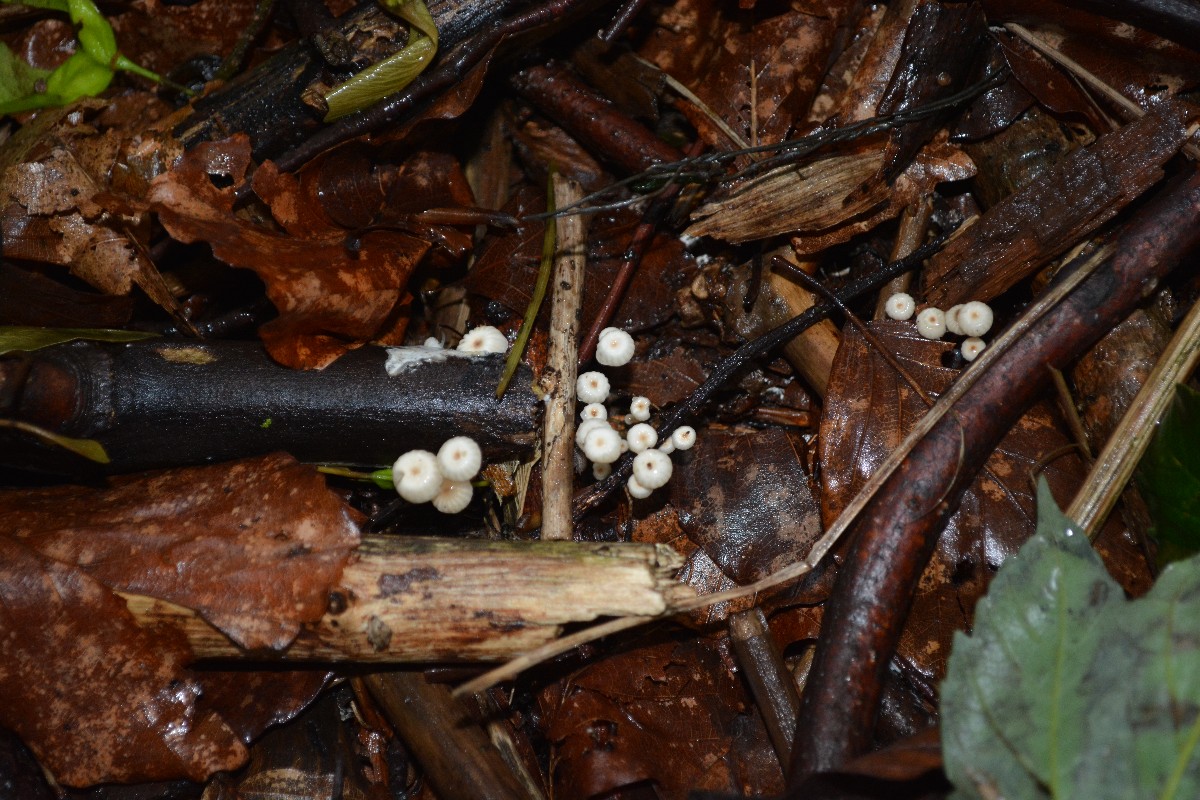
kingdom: Fungi
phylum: Basidiomycota
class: Agaricomycetes
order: Agaricales
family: Marasmiaceae
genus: Marasmius
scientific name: Marasmius rotula
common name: hjul-bruskhat
